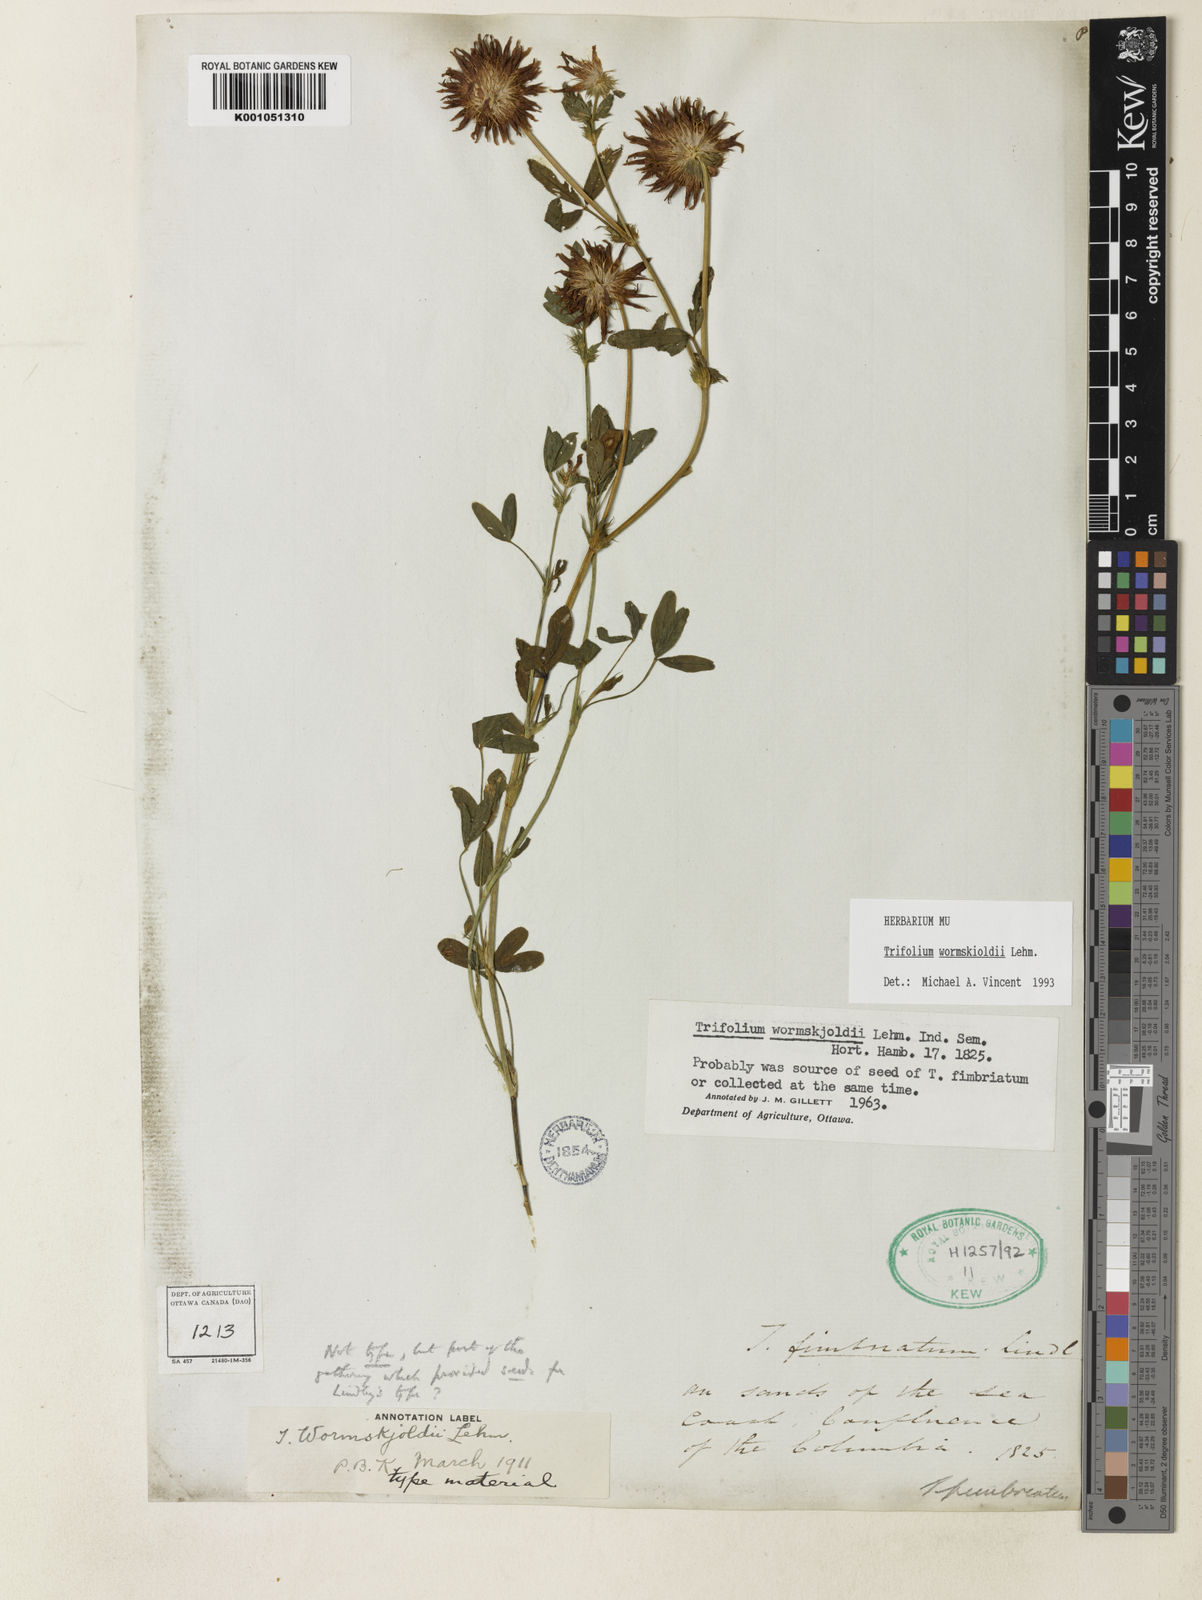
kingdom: Plantae
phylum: Tracheophyta
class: Magnoliopsida
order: Fabales
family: Fabaceae
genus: Trifolium
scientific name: Trifolium willdenovii
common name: Tomcat clover
